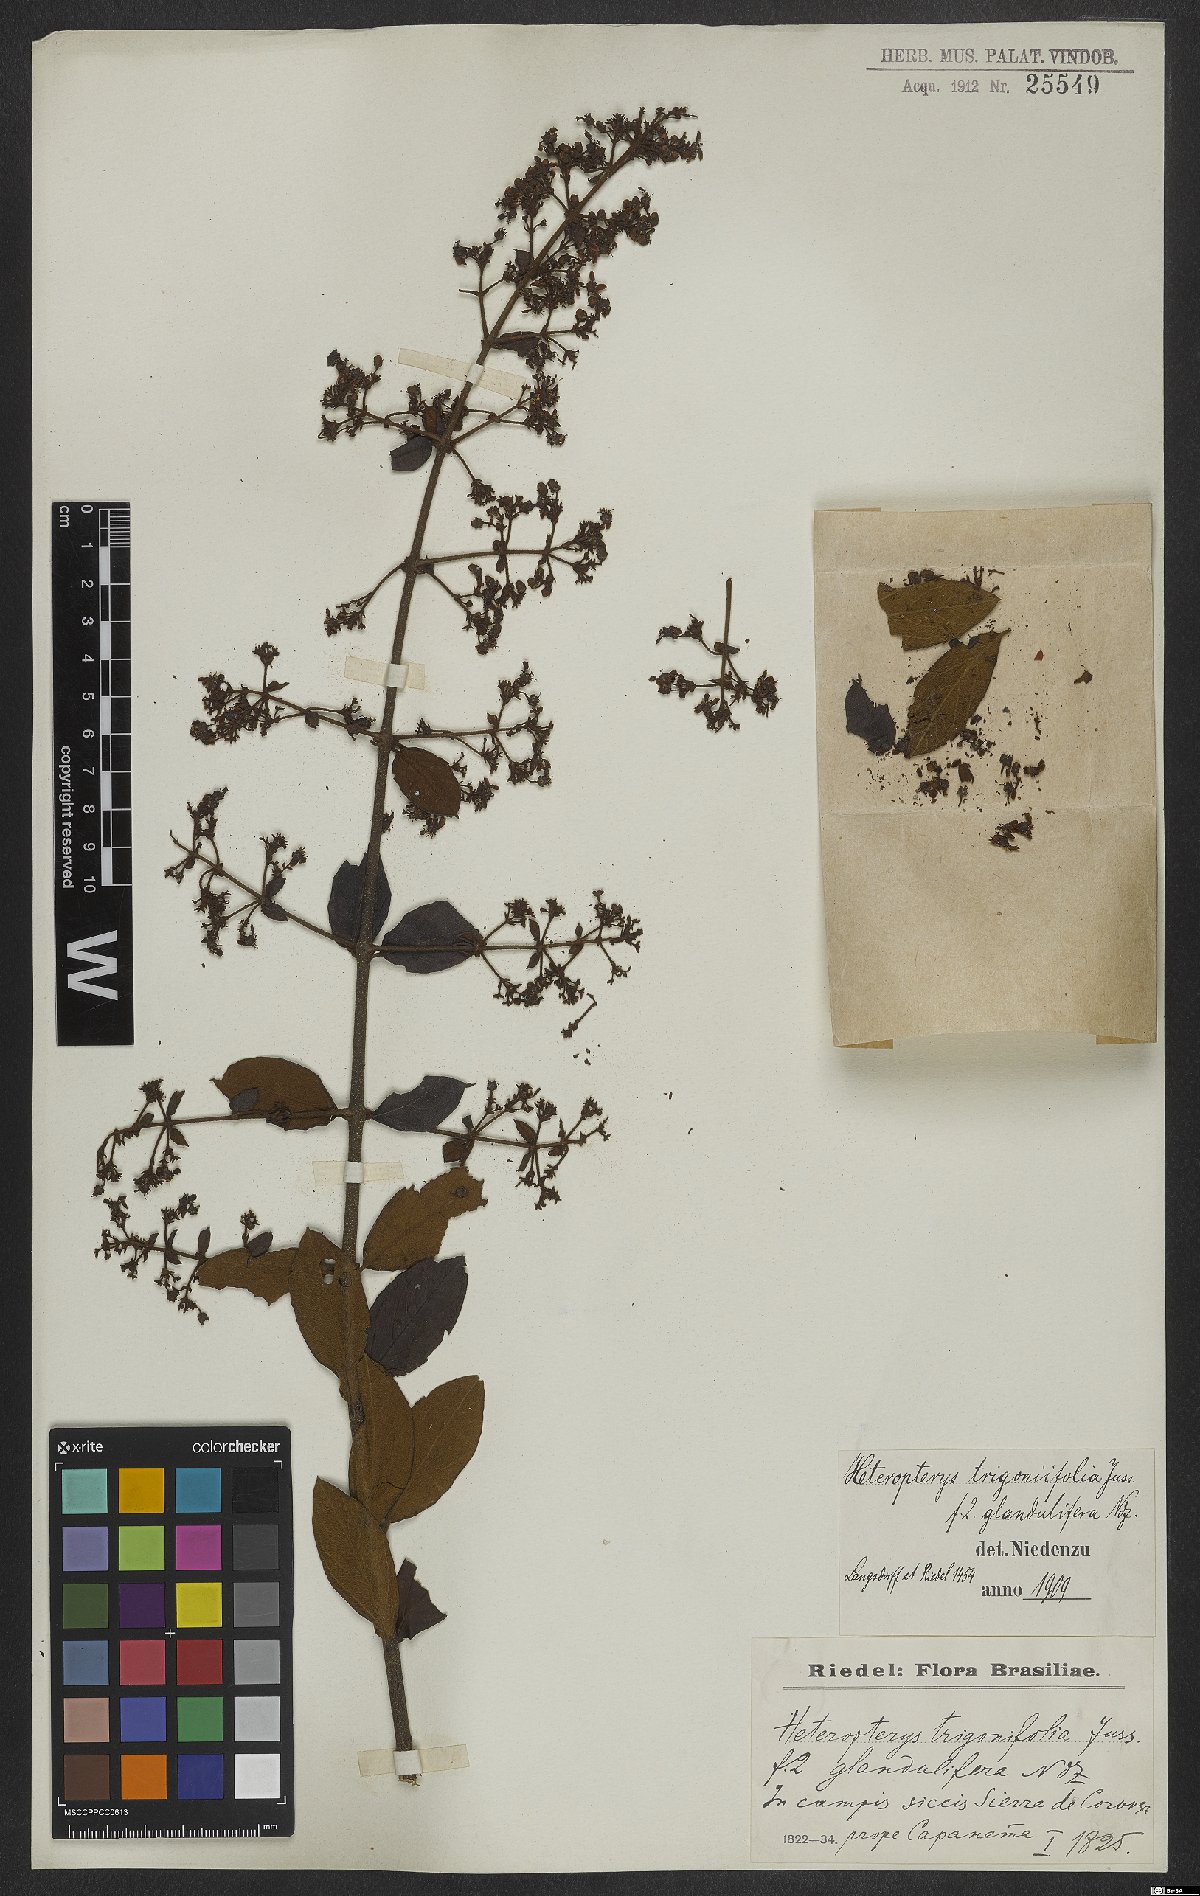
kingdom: Plantae
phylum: Tracheophyta
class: Magnoliopsida
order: Malpighiales
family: Malpighiaceae
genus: Heteropterys
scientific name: Heteropterys trigoniifolia
